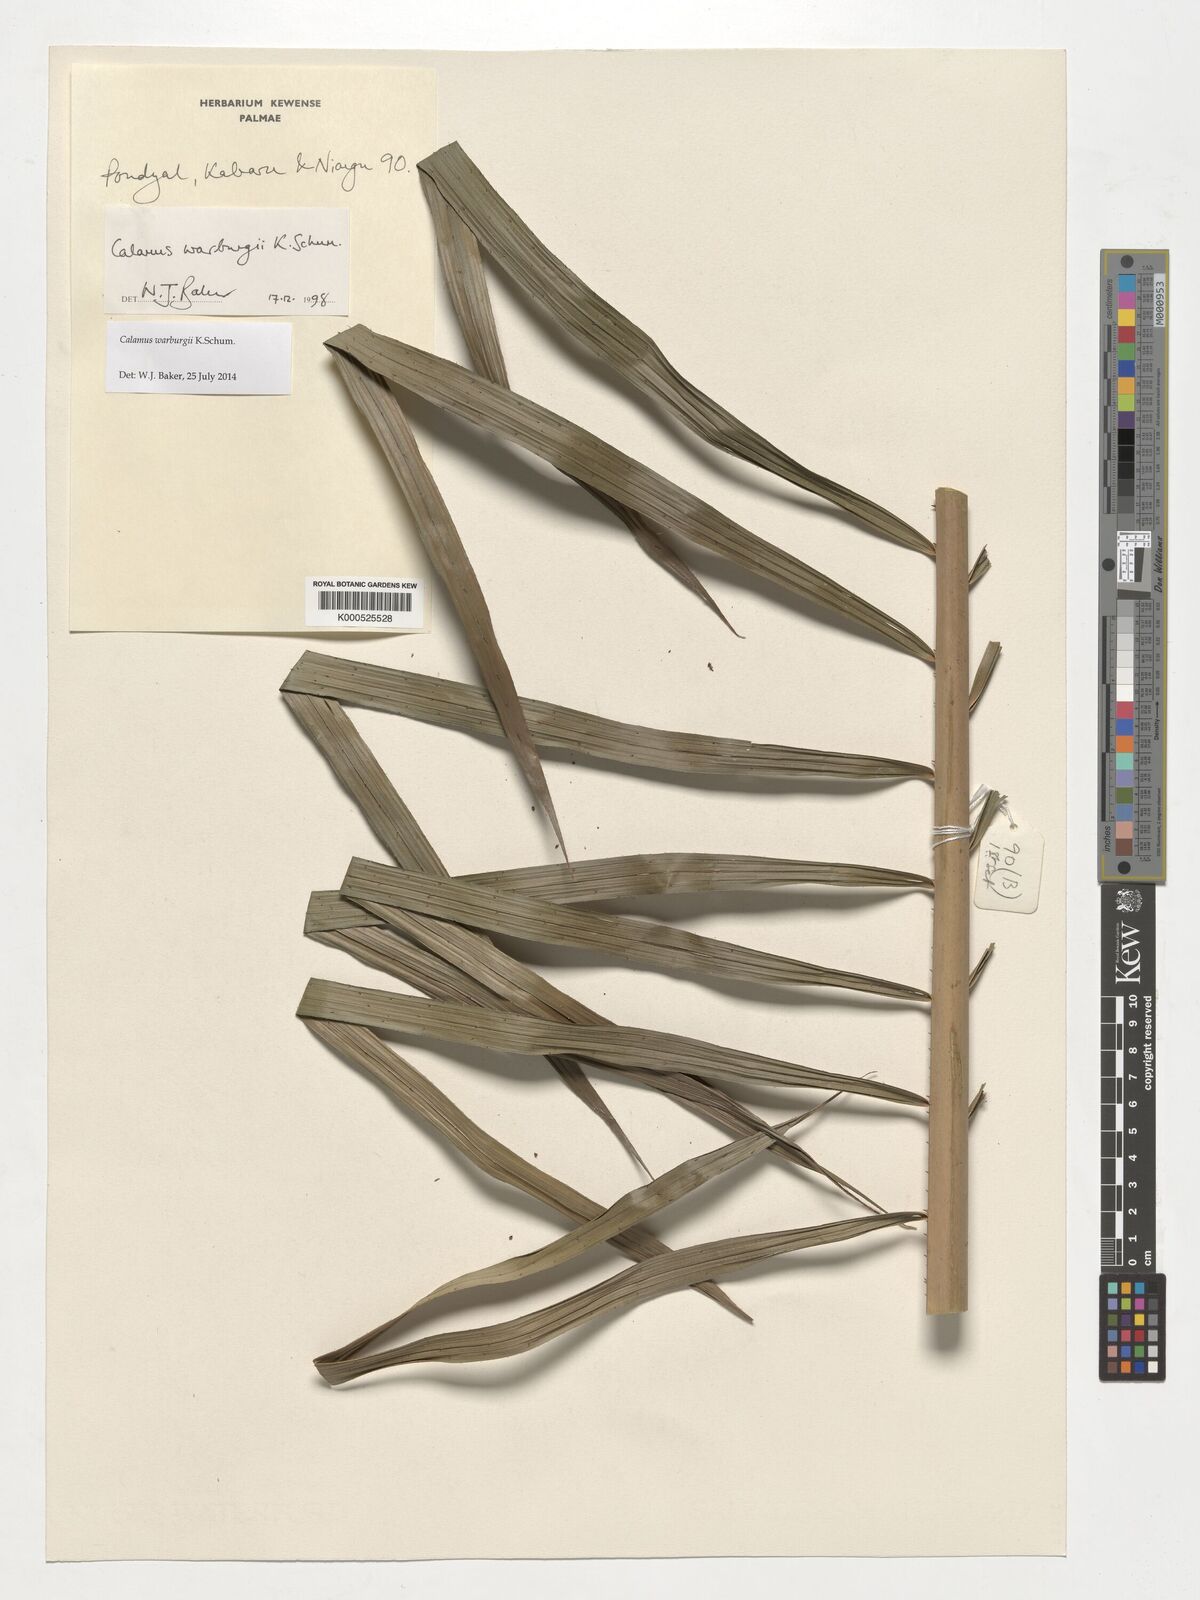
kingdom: Plantae
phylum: Tracheophyta
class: Liliopsida
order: Arecales
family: Arecaceae
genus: Calamus
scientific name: Calamus warburgii
